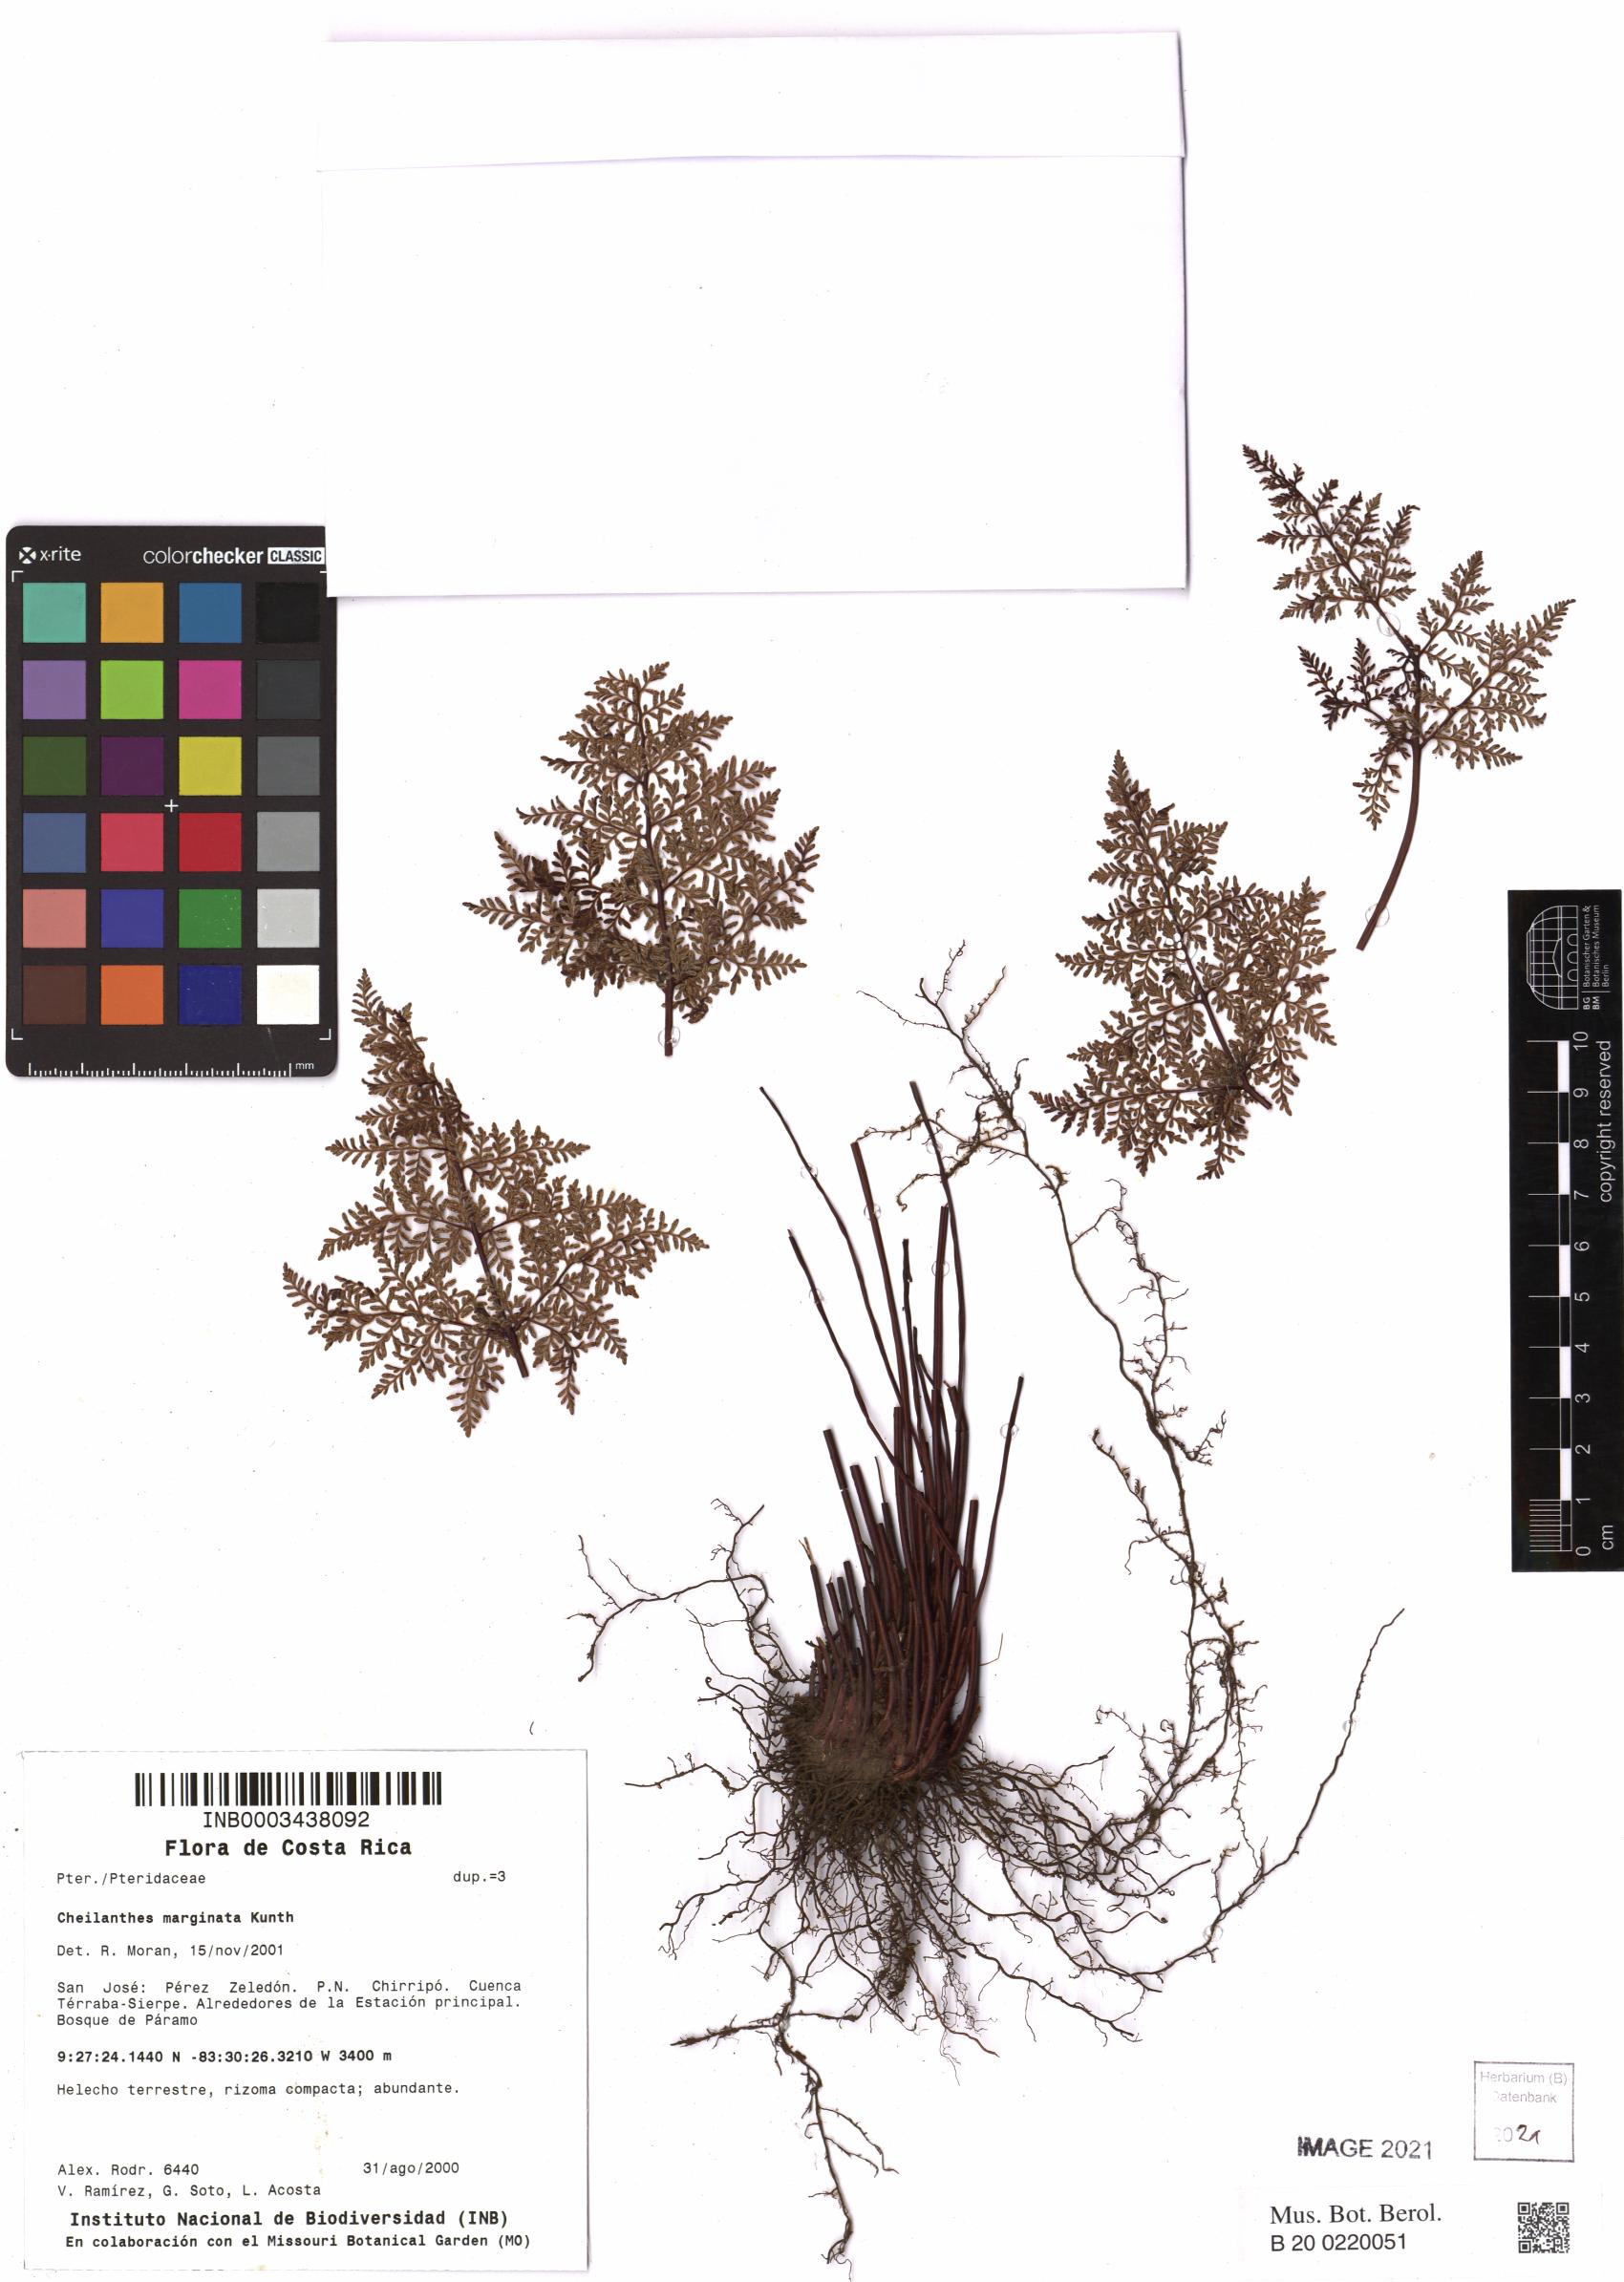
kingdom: Plantae
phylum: Tracheophyta
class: Polypodiopsida
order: Polypodiales
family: Pteridaceae
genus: Gaga
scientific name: Gaga marginata
